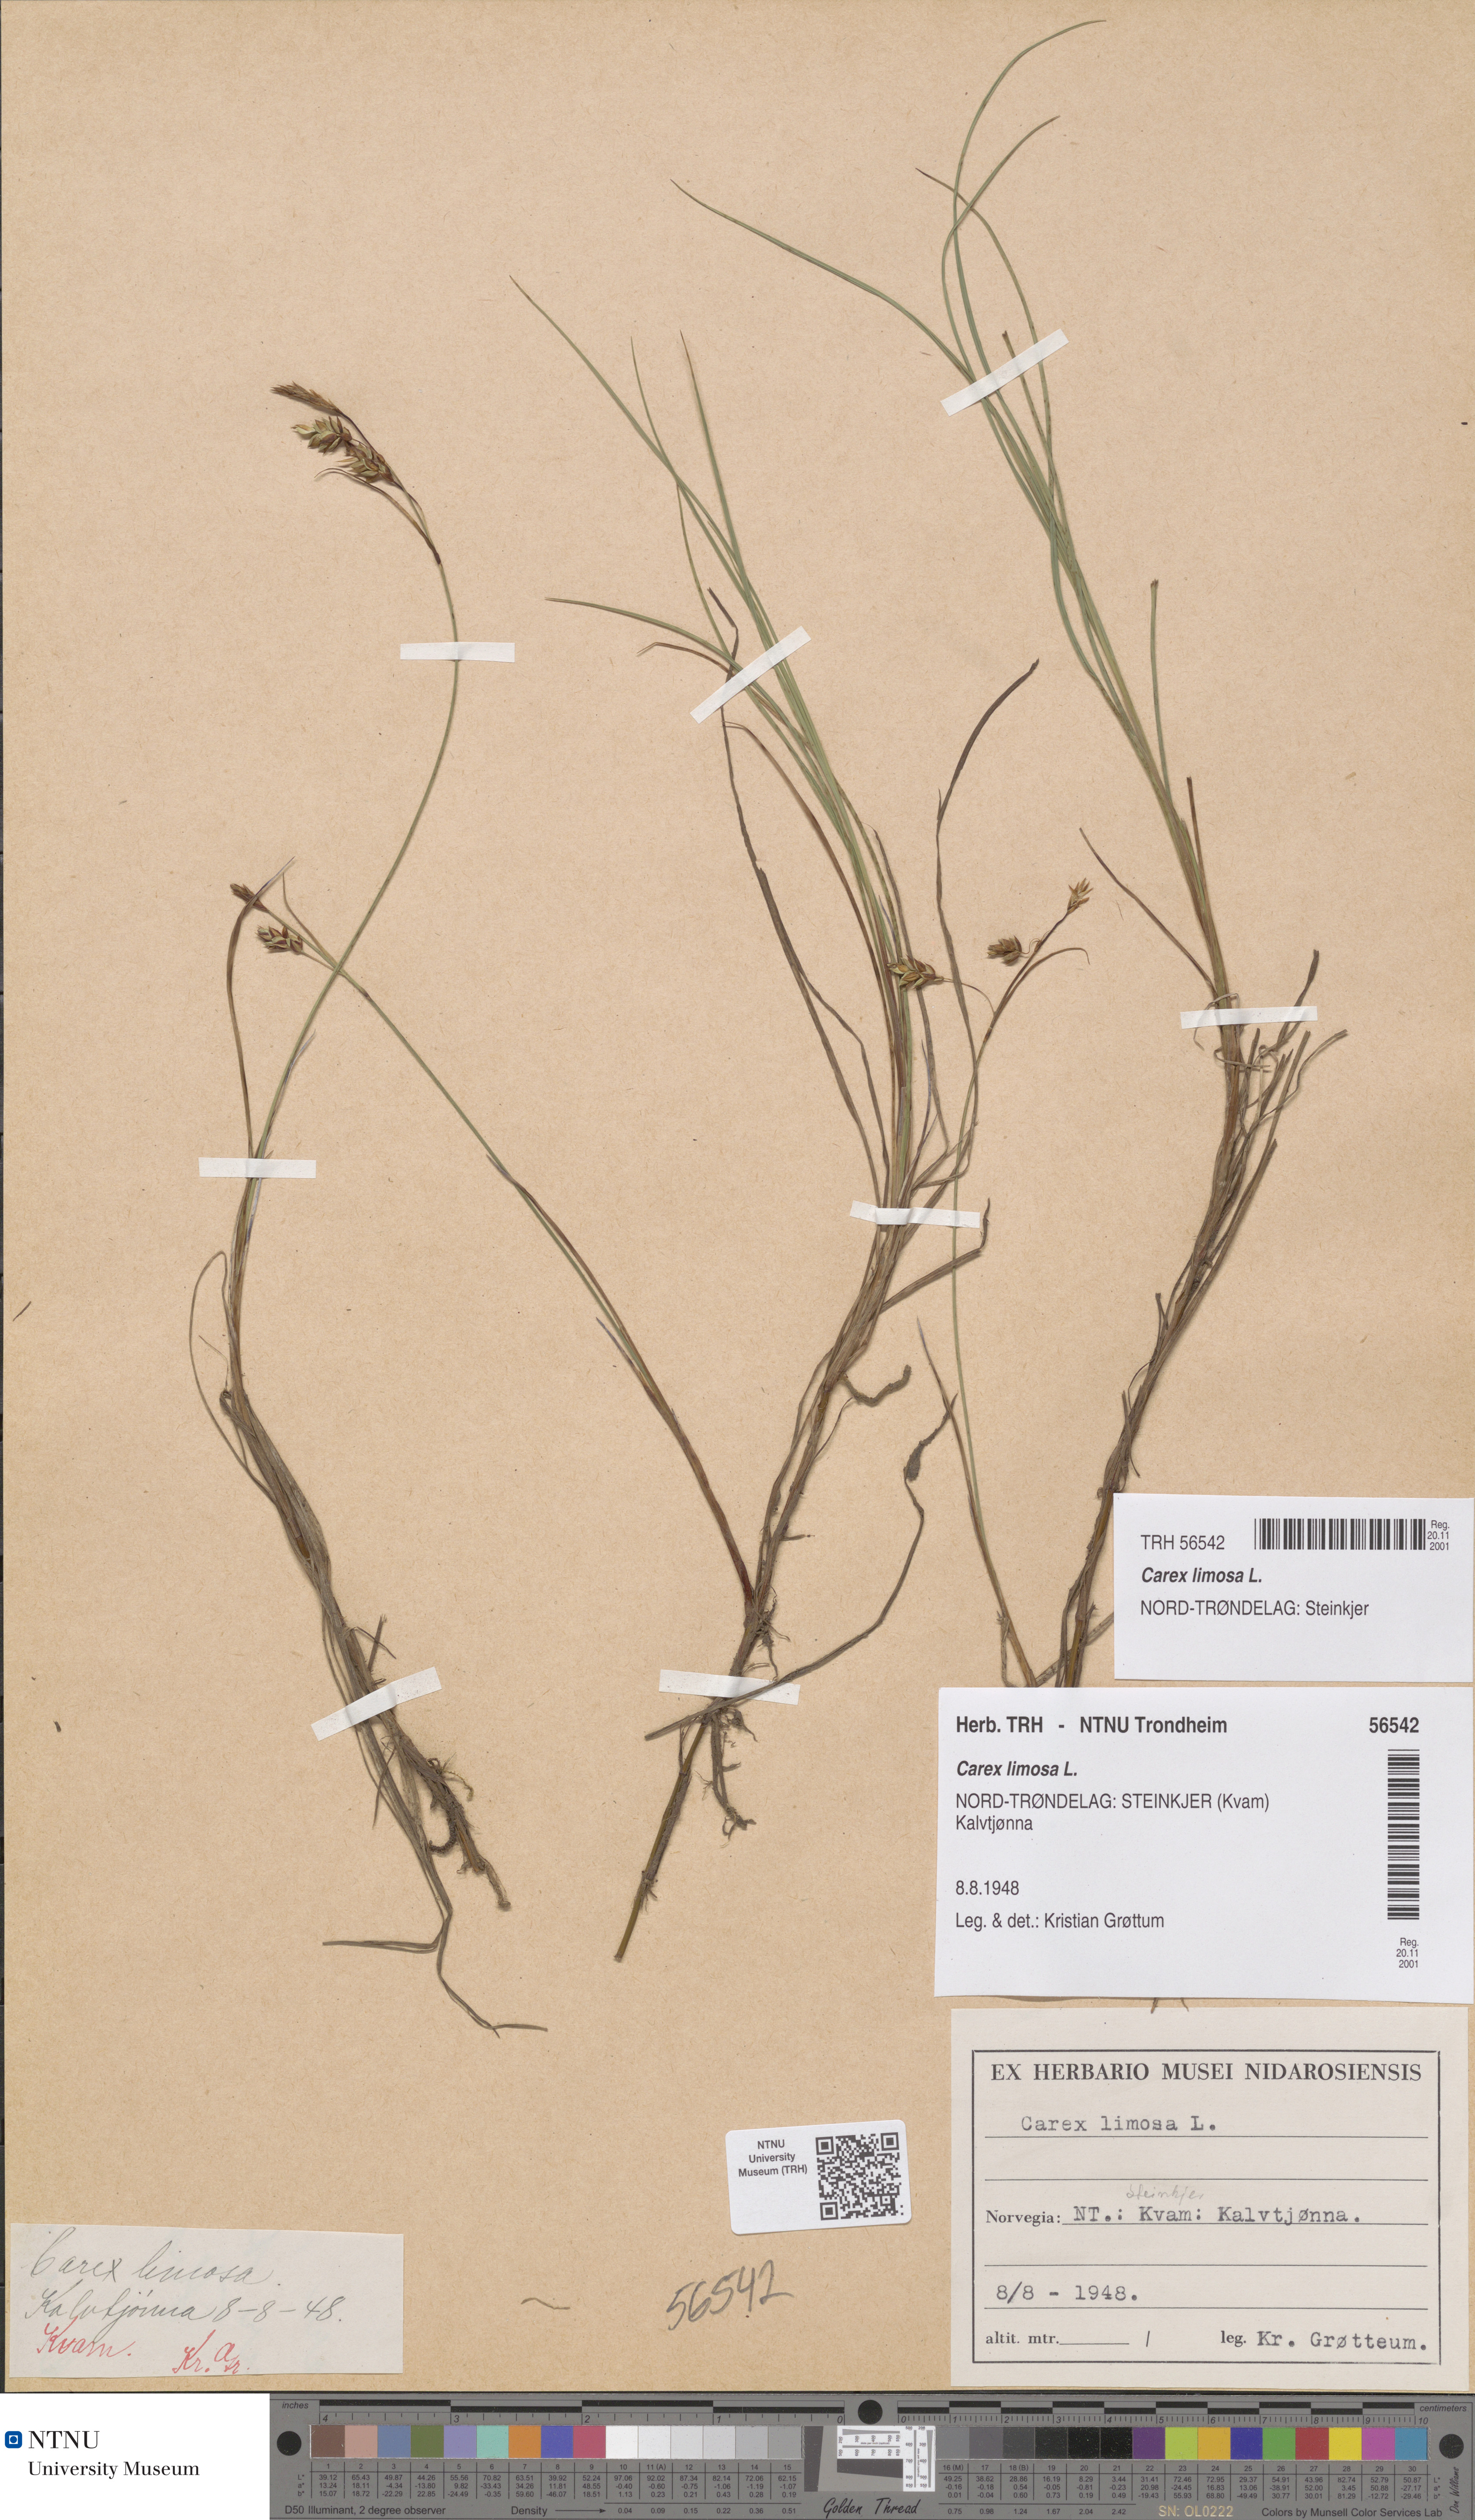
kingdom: Plantae
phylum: Tracheophyta
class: Liliopsida
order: Poales
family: Cyperaceae
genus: Carex
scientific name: Carex limosa
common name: Bog sedge
